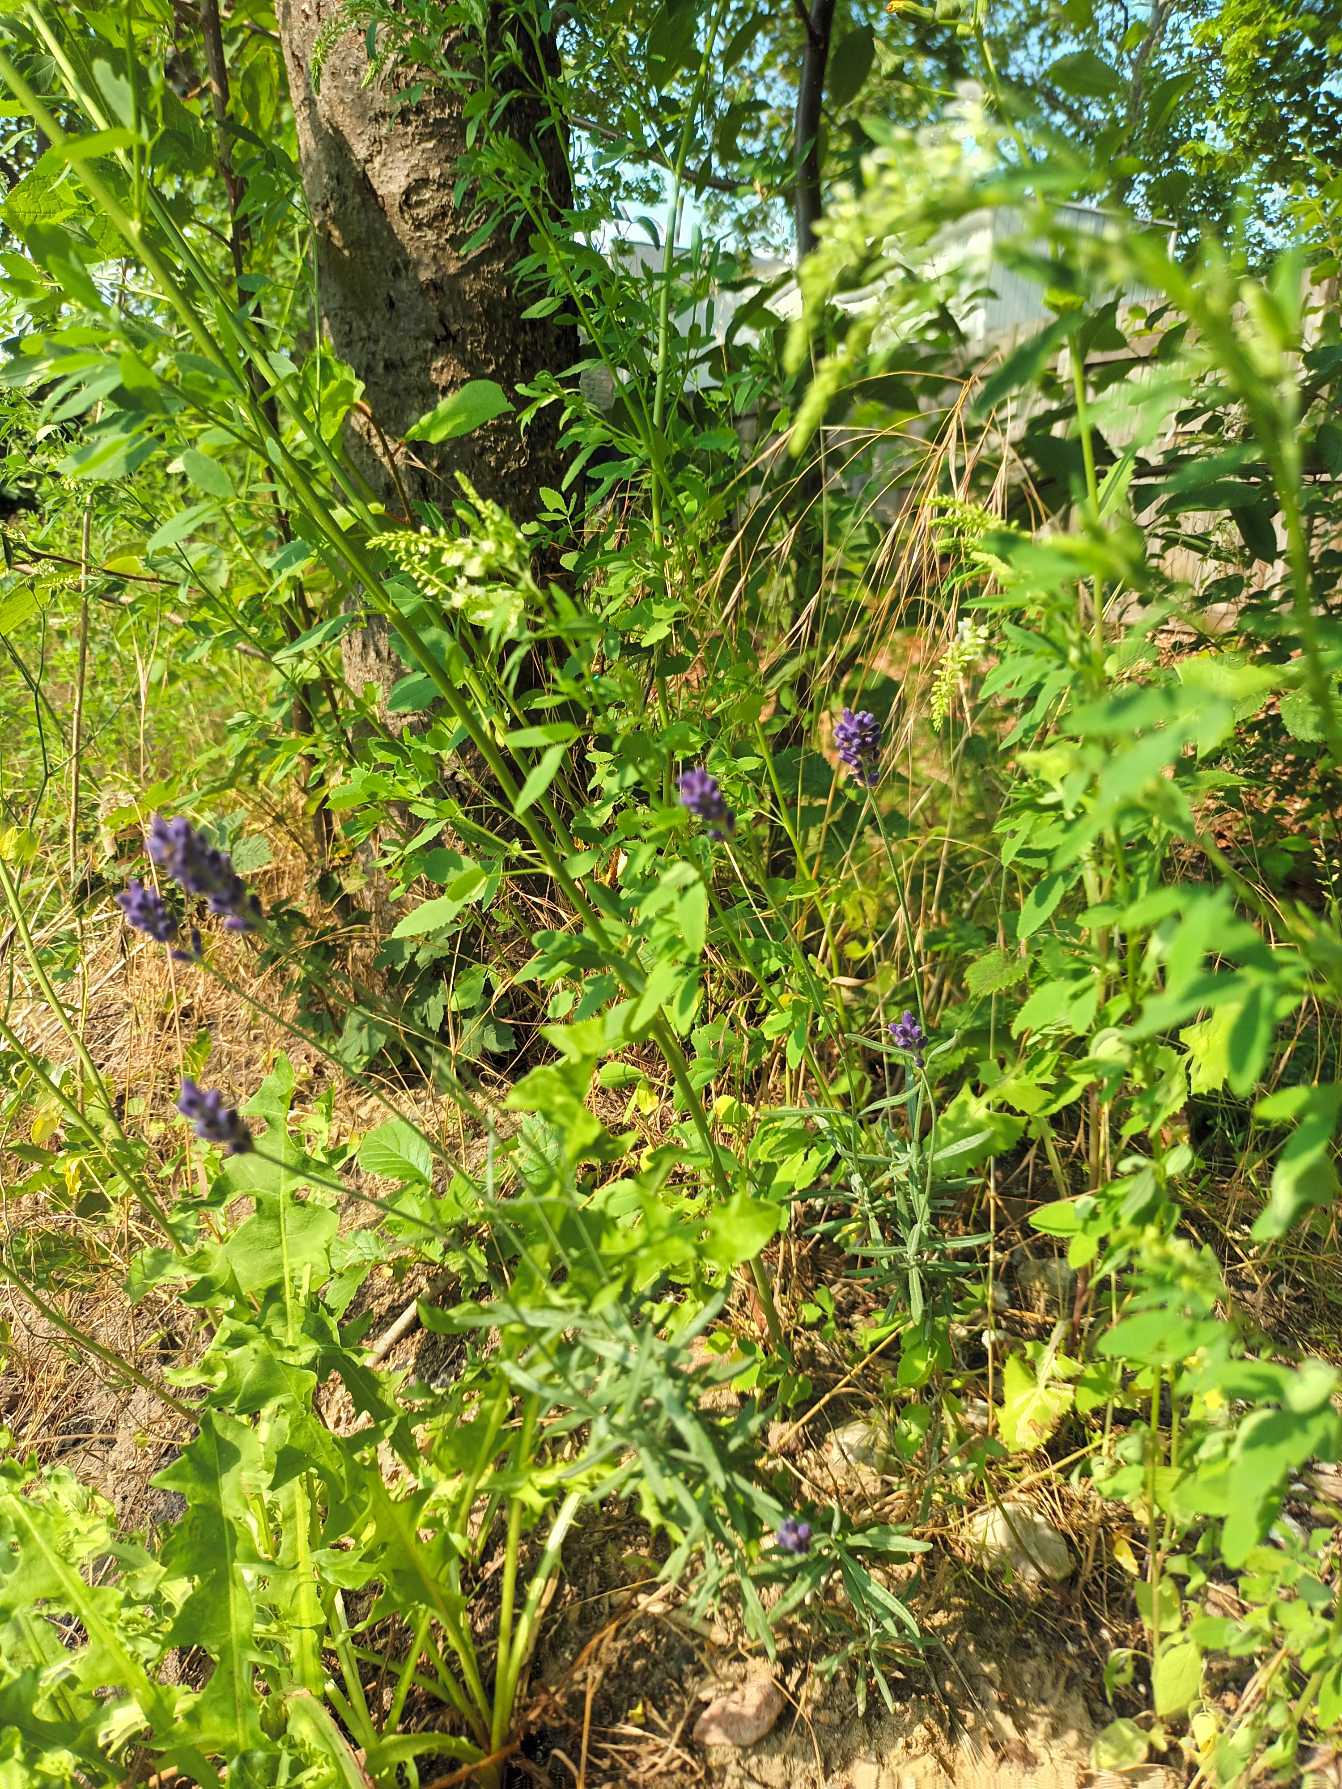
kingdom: Plantae
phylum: Tracheophyta
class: Magnoliopsida
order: Lamiales
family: Lamiaceae
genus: Lavandula
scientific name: Lavandula angustifolia
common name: Ægte lavendel
